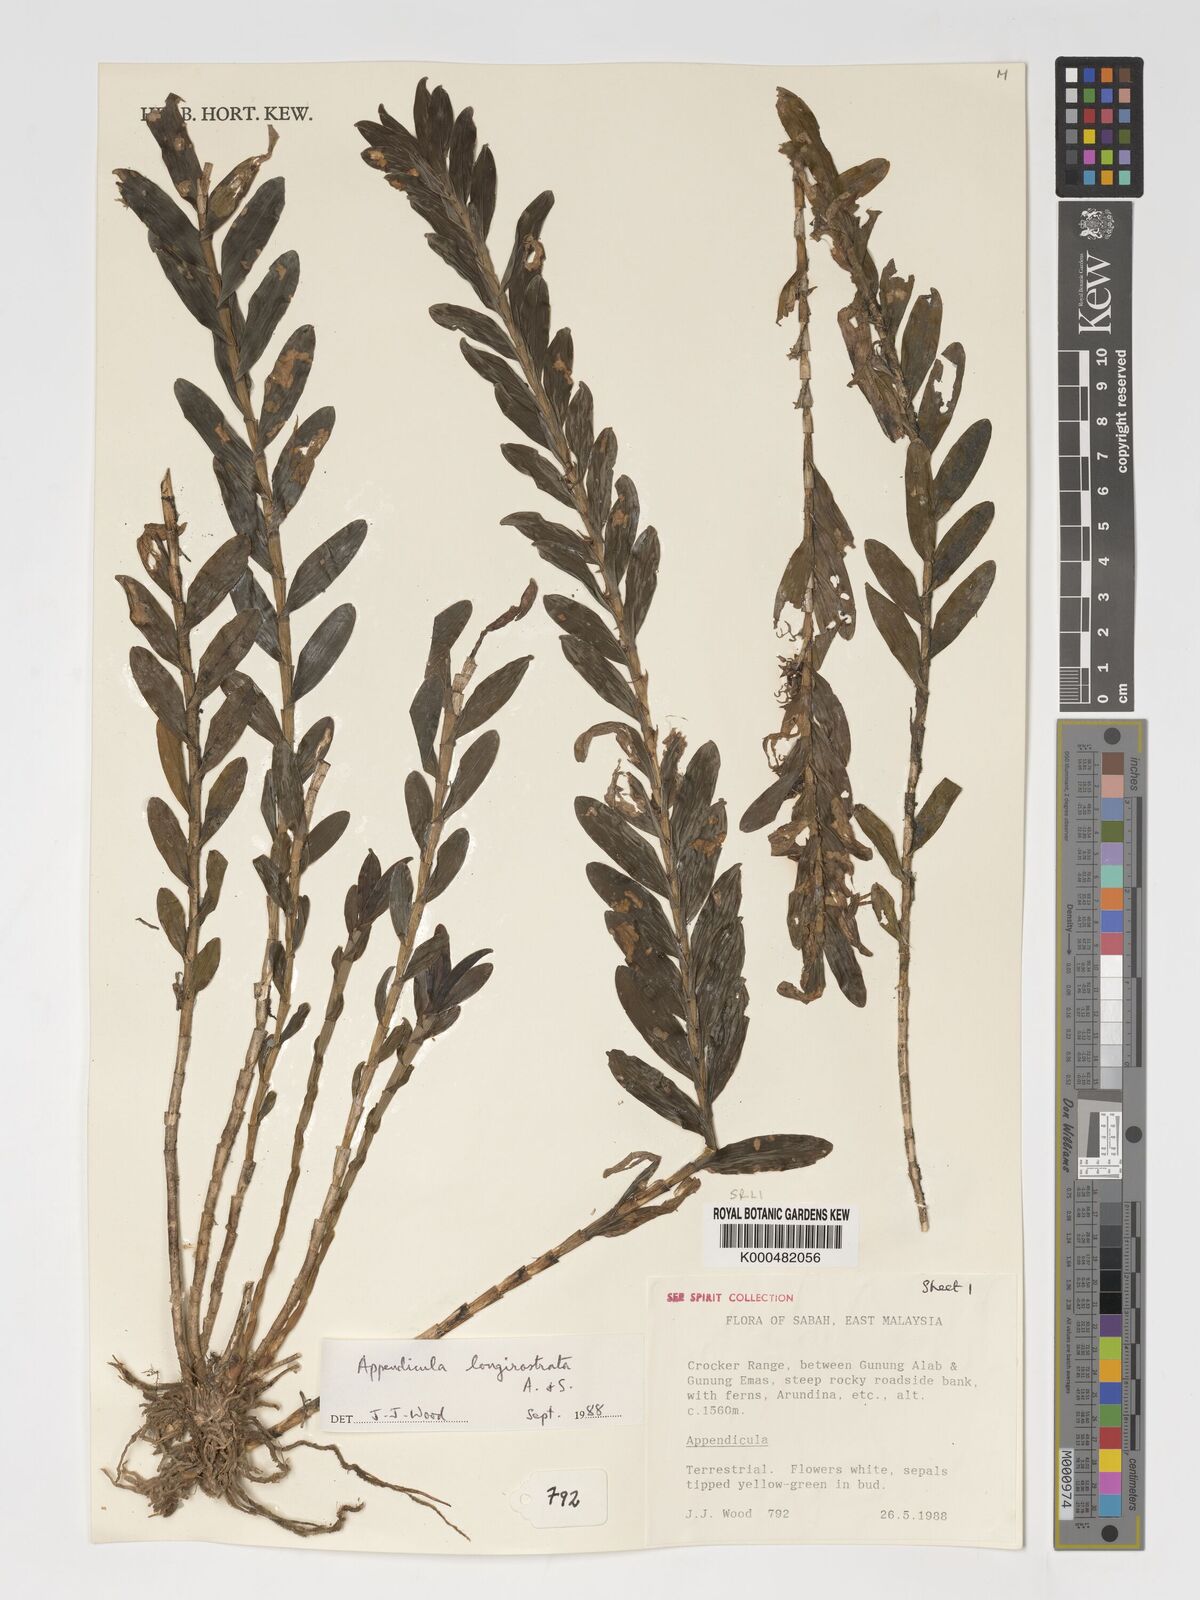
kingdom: Plantae
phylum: Tracheophyta
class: Liliopsida
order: Asparagales
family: Orchidaceae
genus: Appendicula
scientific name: Appendicula longirostrata
